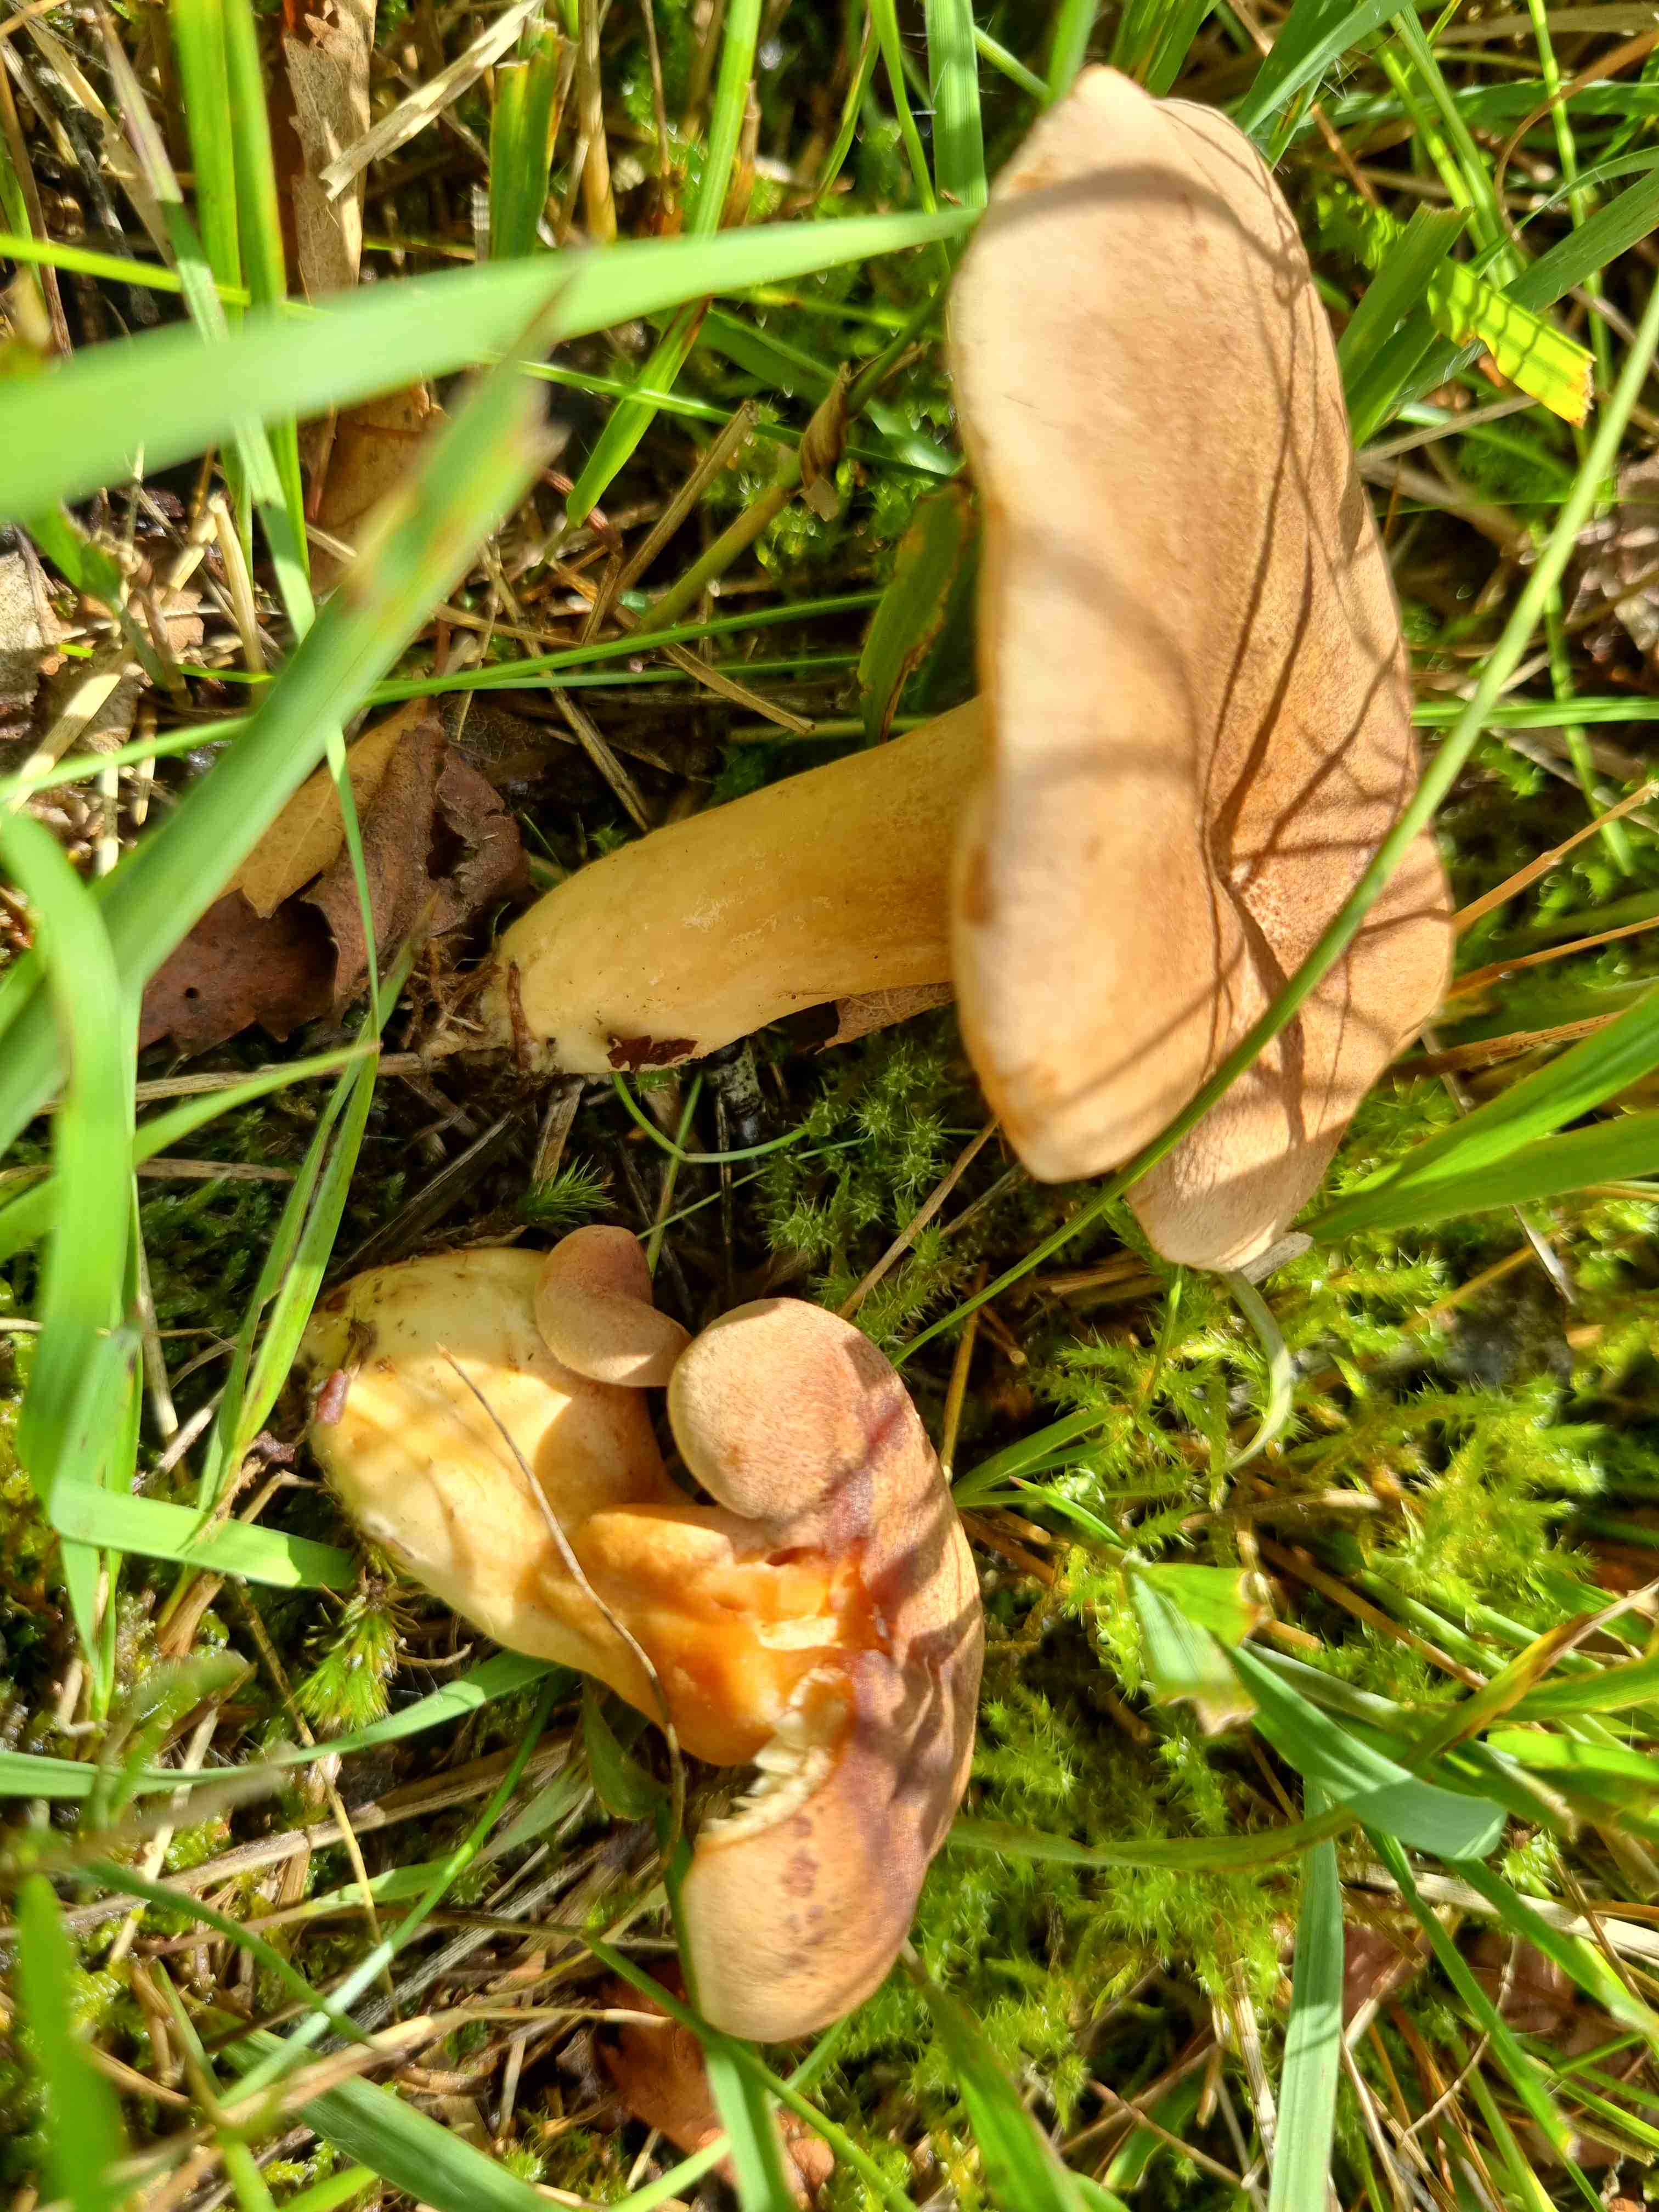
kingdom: Fungi
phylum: Basidiomycota
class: Agaricomycetes
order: Russulales
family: Russulaceae
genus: Lactarius
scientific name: Lactarius helvus
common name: mose-mælkehat
